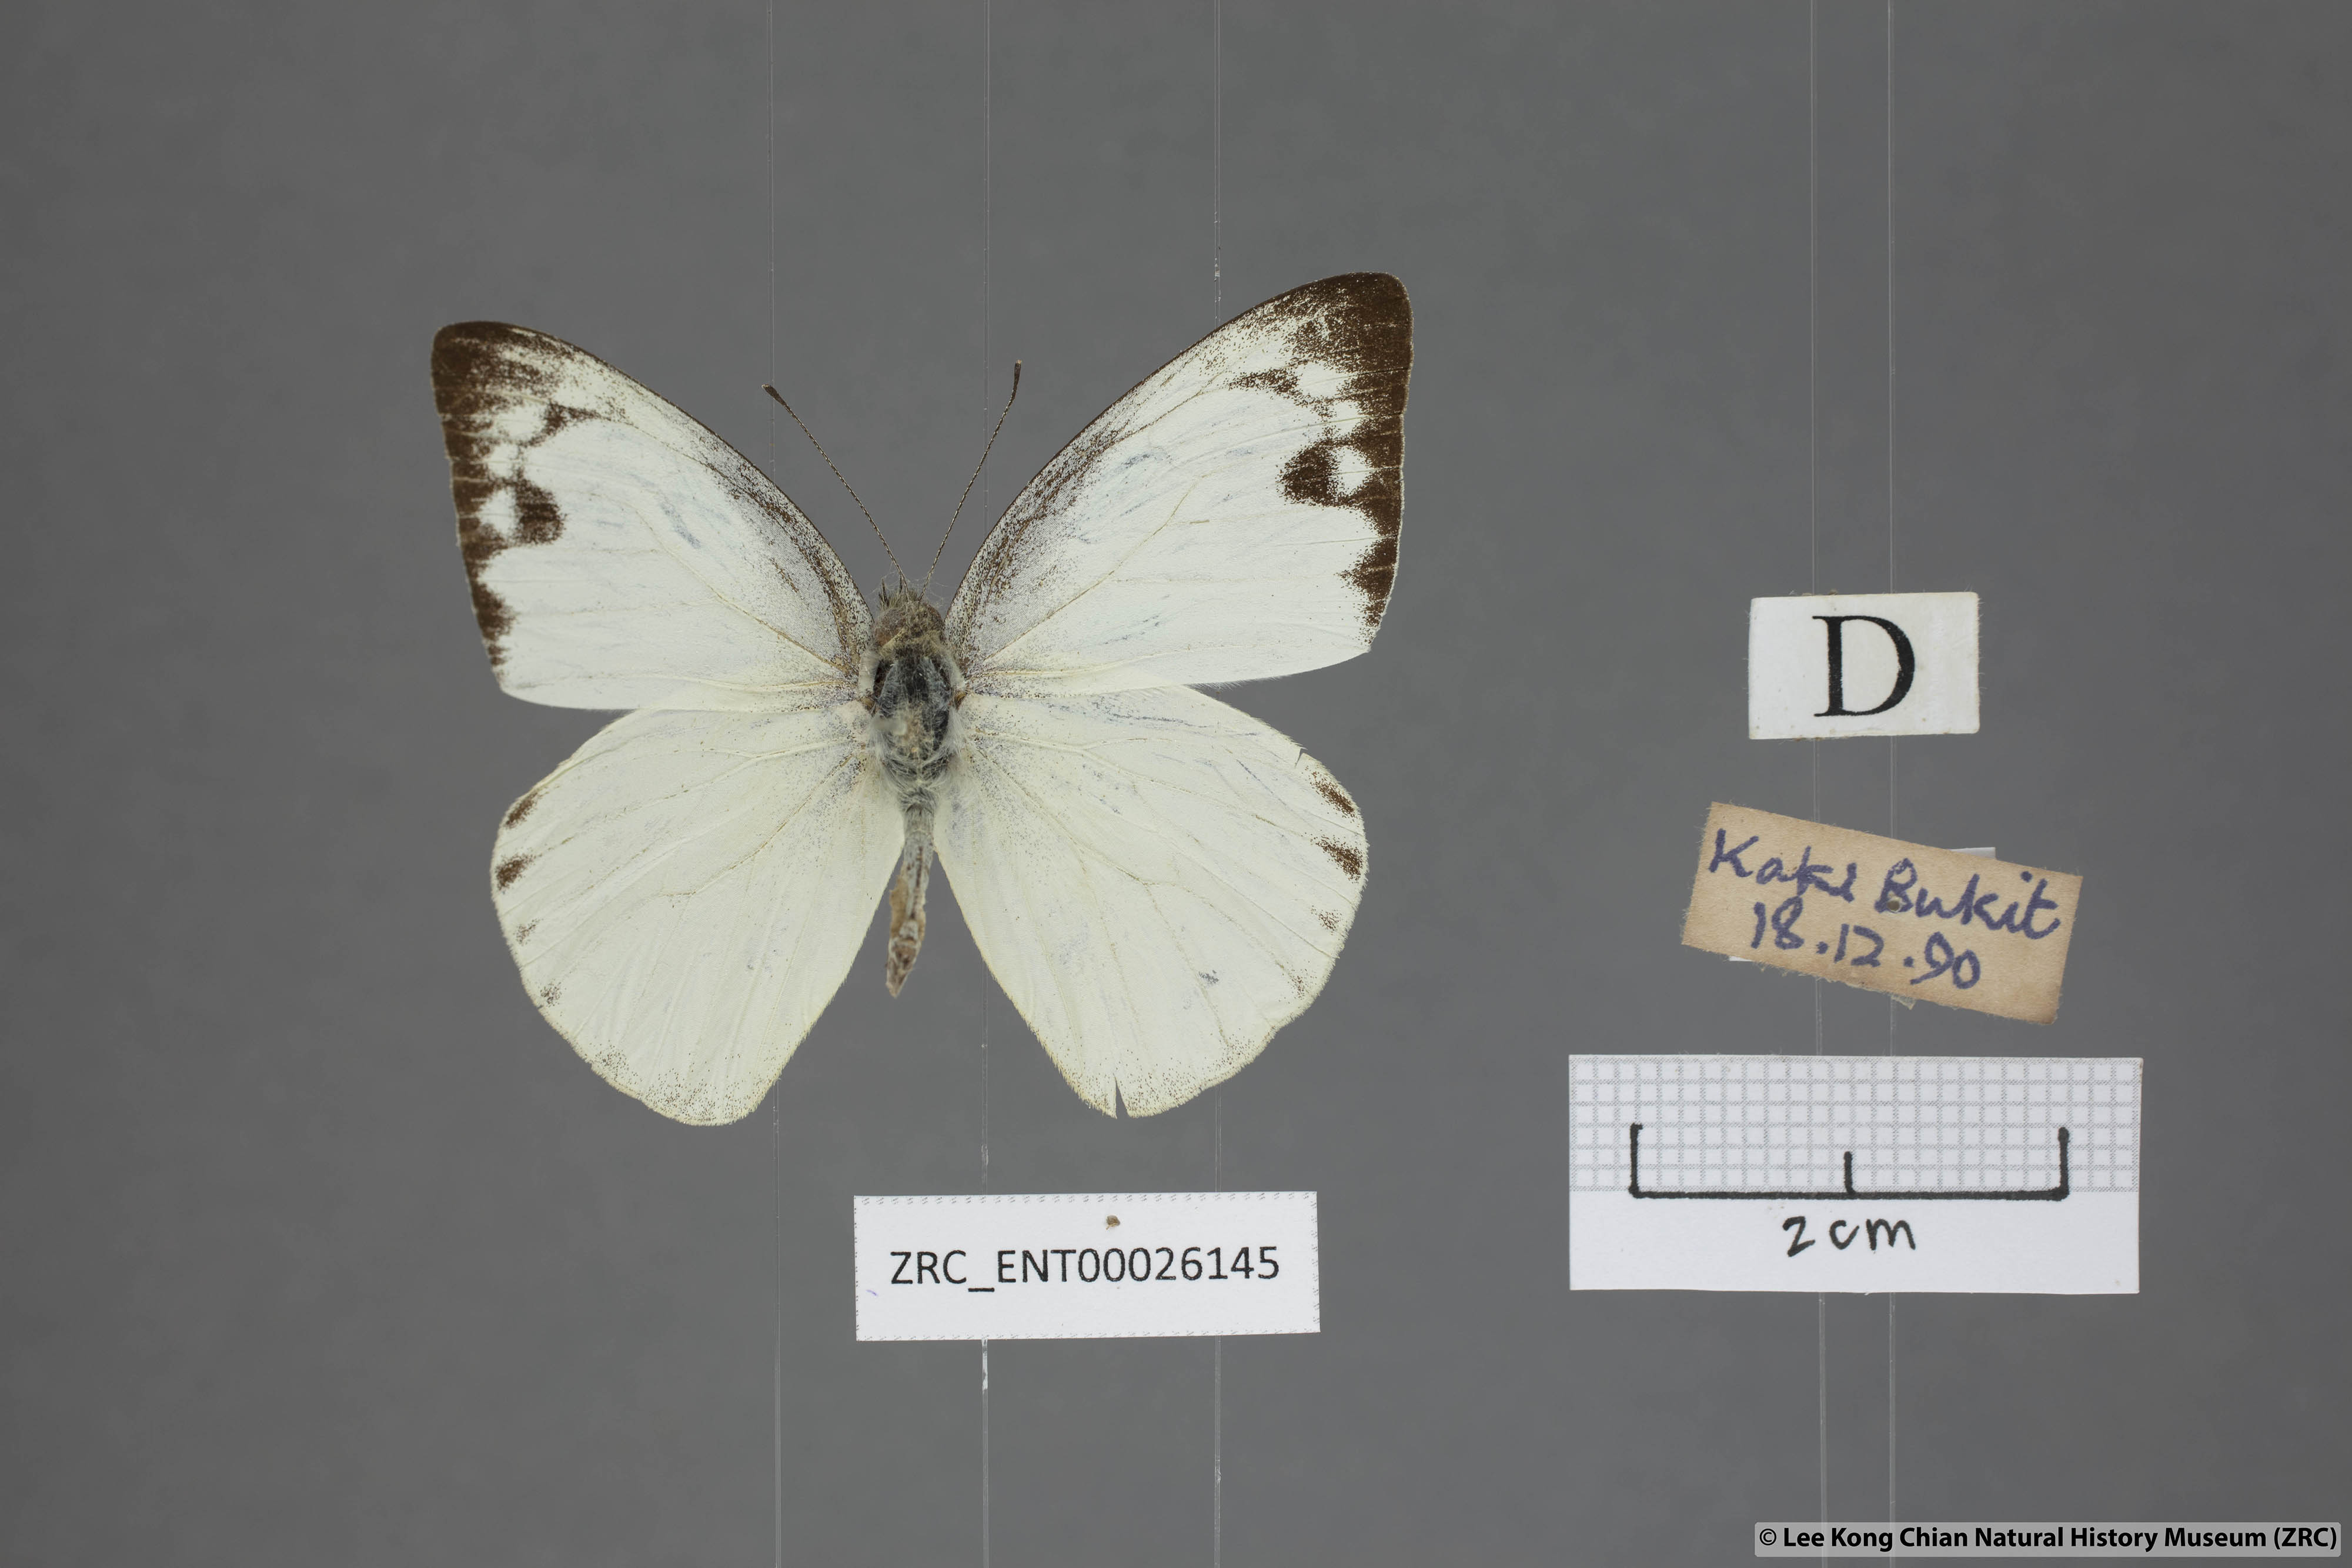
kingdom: Animalia
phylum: Arthropoda
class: Insecta
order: Lepidoptera
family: Pieridae
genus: Appias
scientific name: Appias paulina
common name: Ceylon lesser albatross
